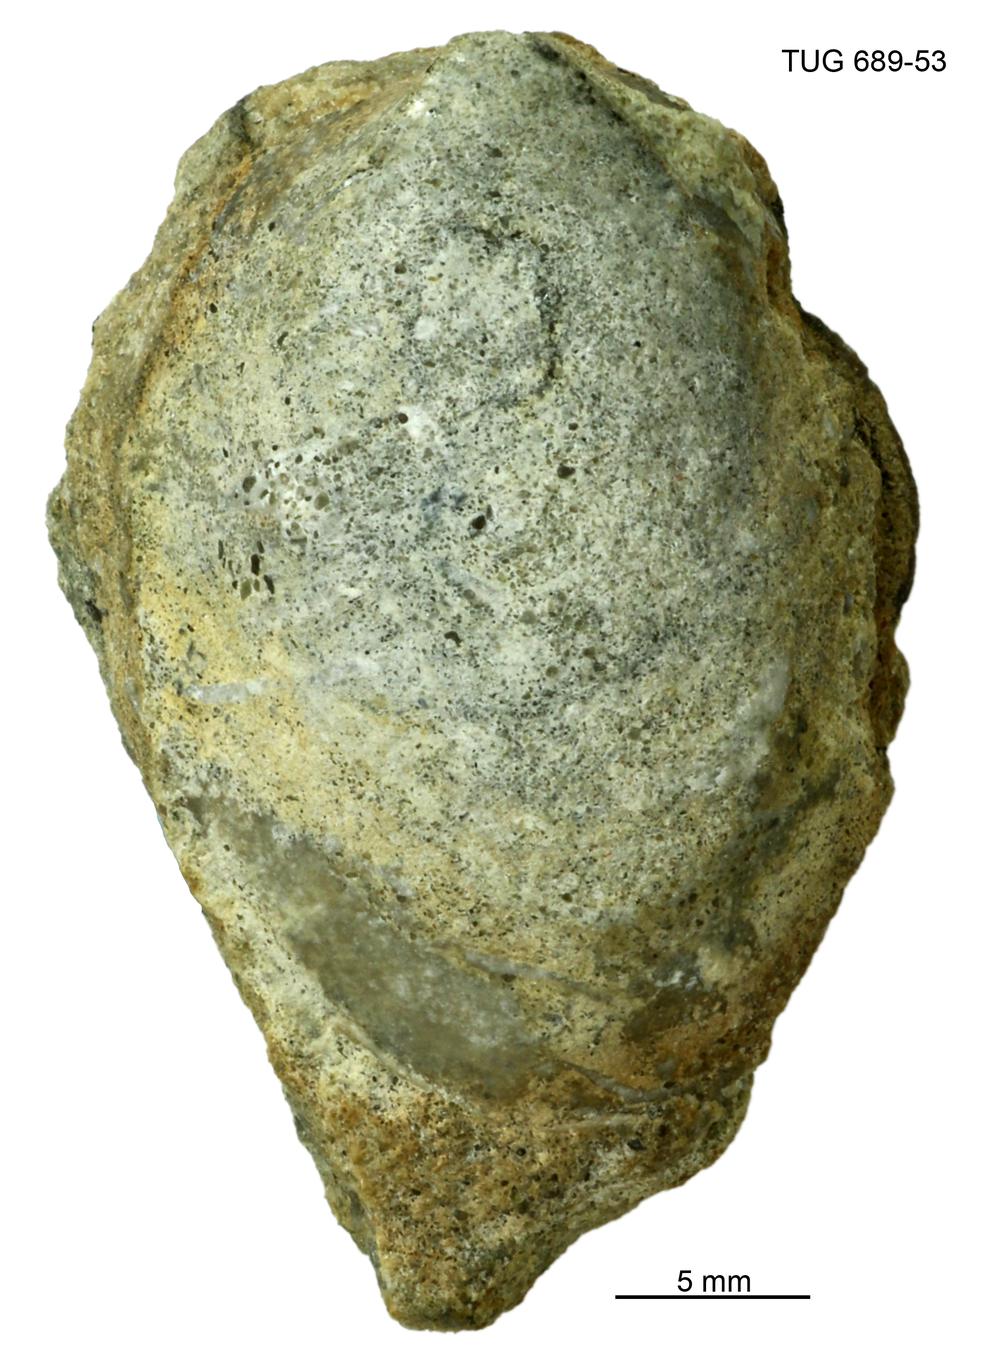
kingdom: Animalia
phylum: Mollusca
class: Gastropoda
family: Archinacellidae
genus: Archinacella
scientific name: Archinacella Metoptoma melissa
